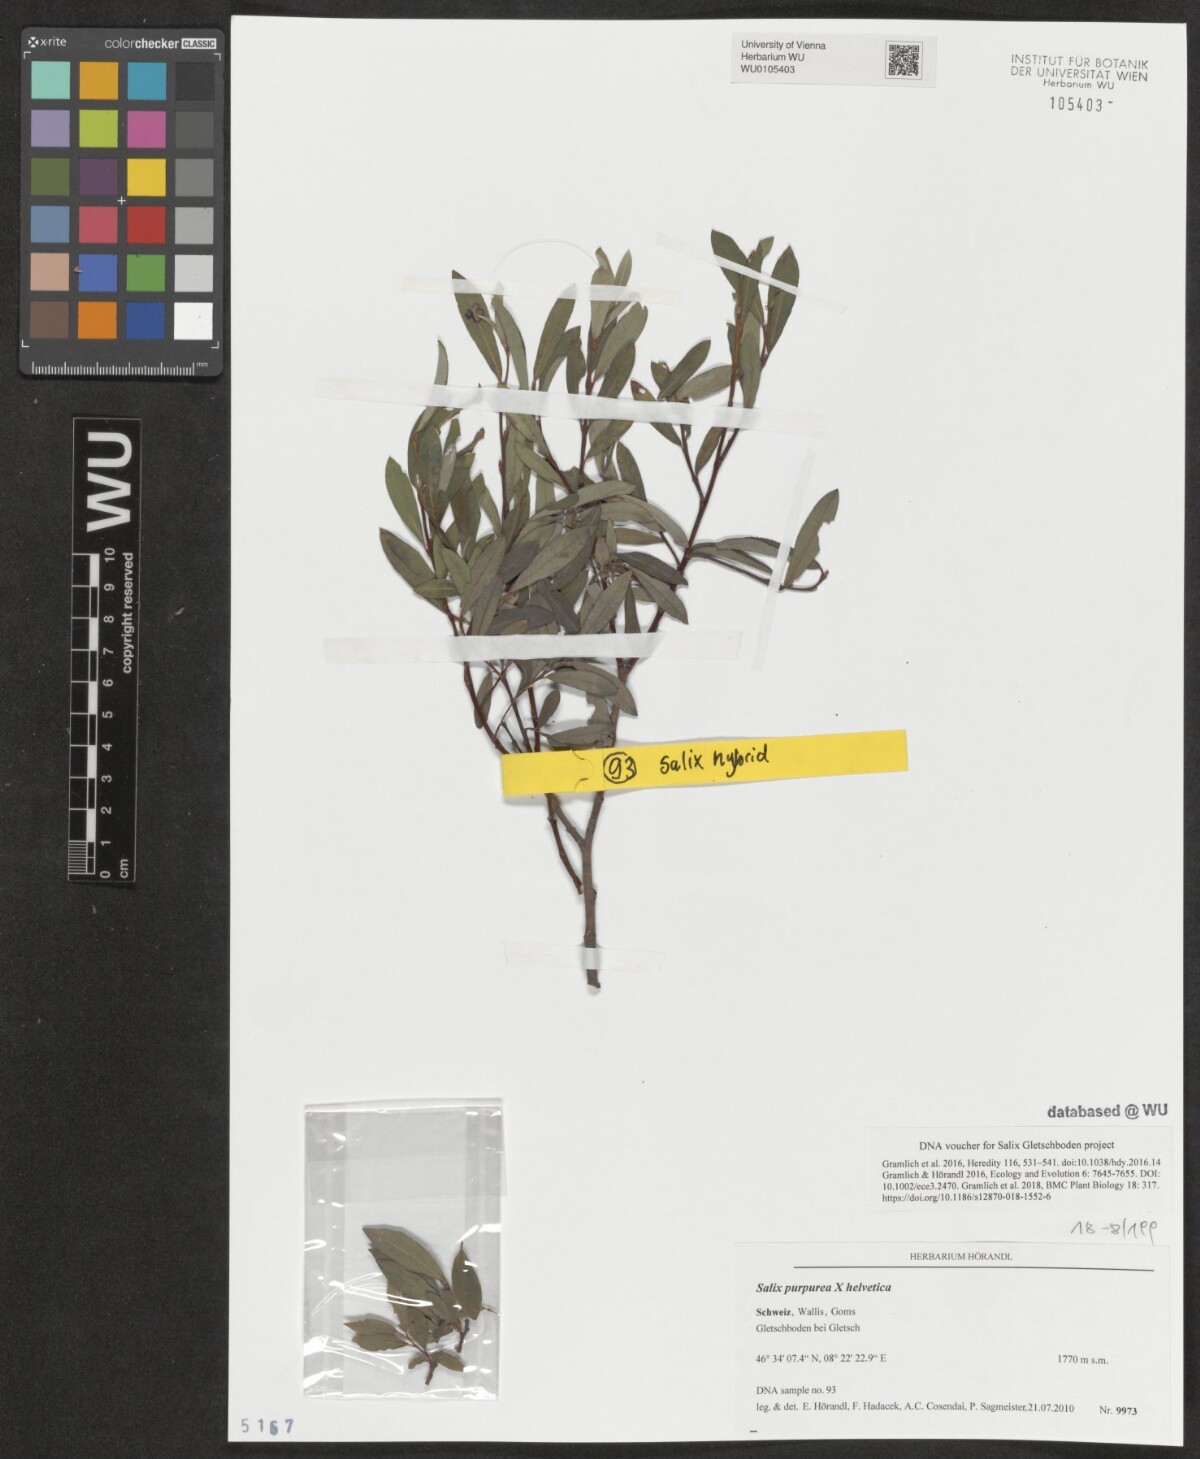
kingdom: Plantae
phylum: Tracheophyta
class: Magnoliopsida
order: Malpighiales
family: Salicaceae
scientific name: Salicaceae
